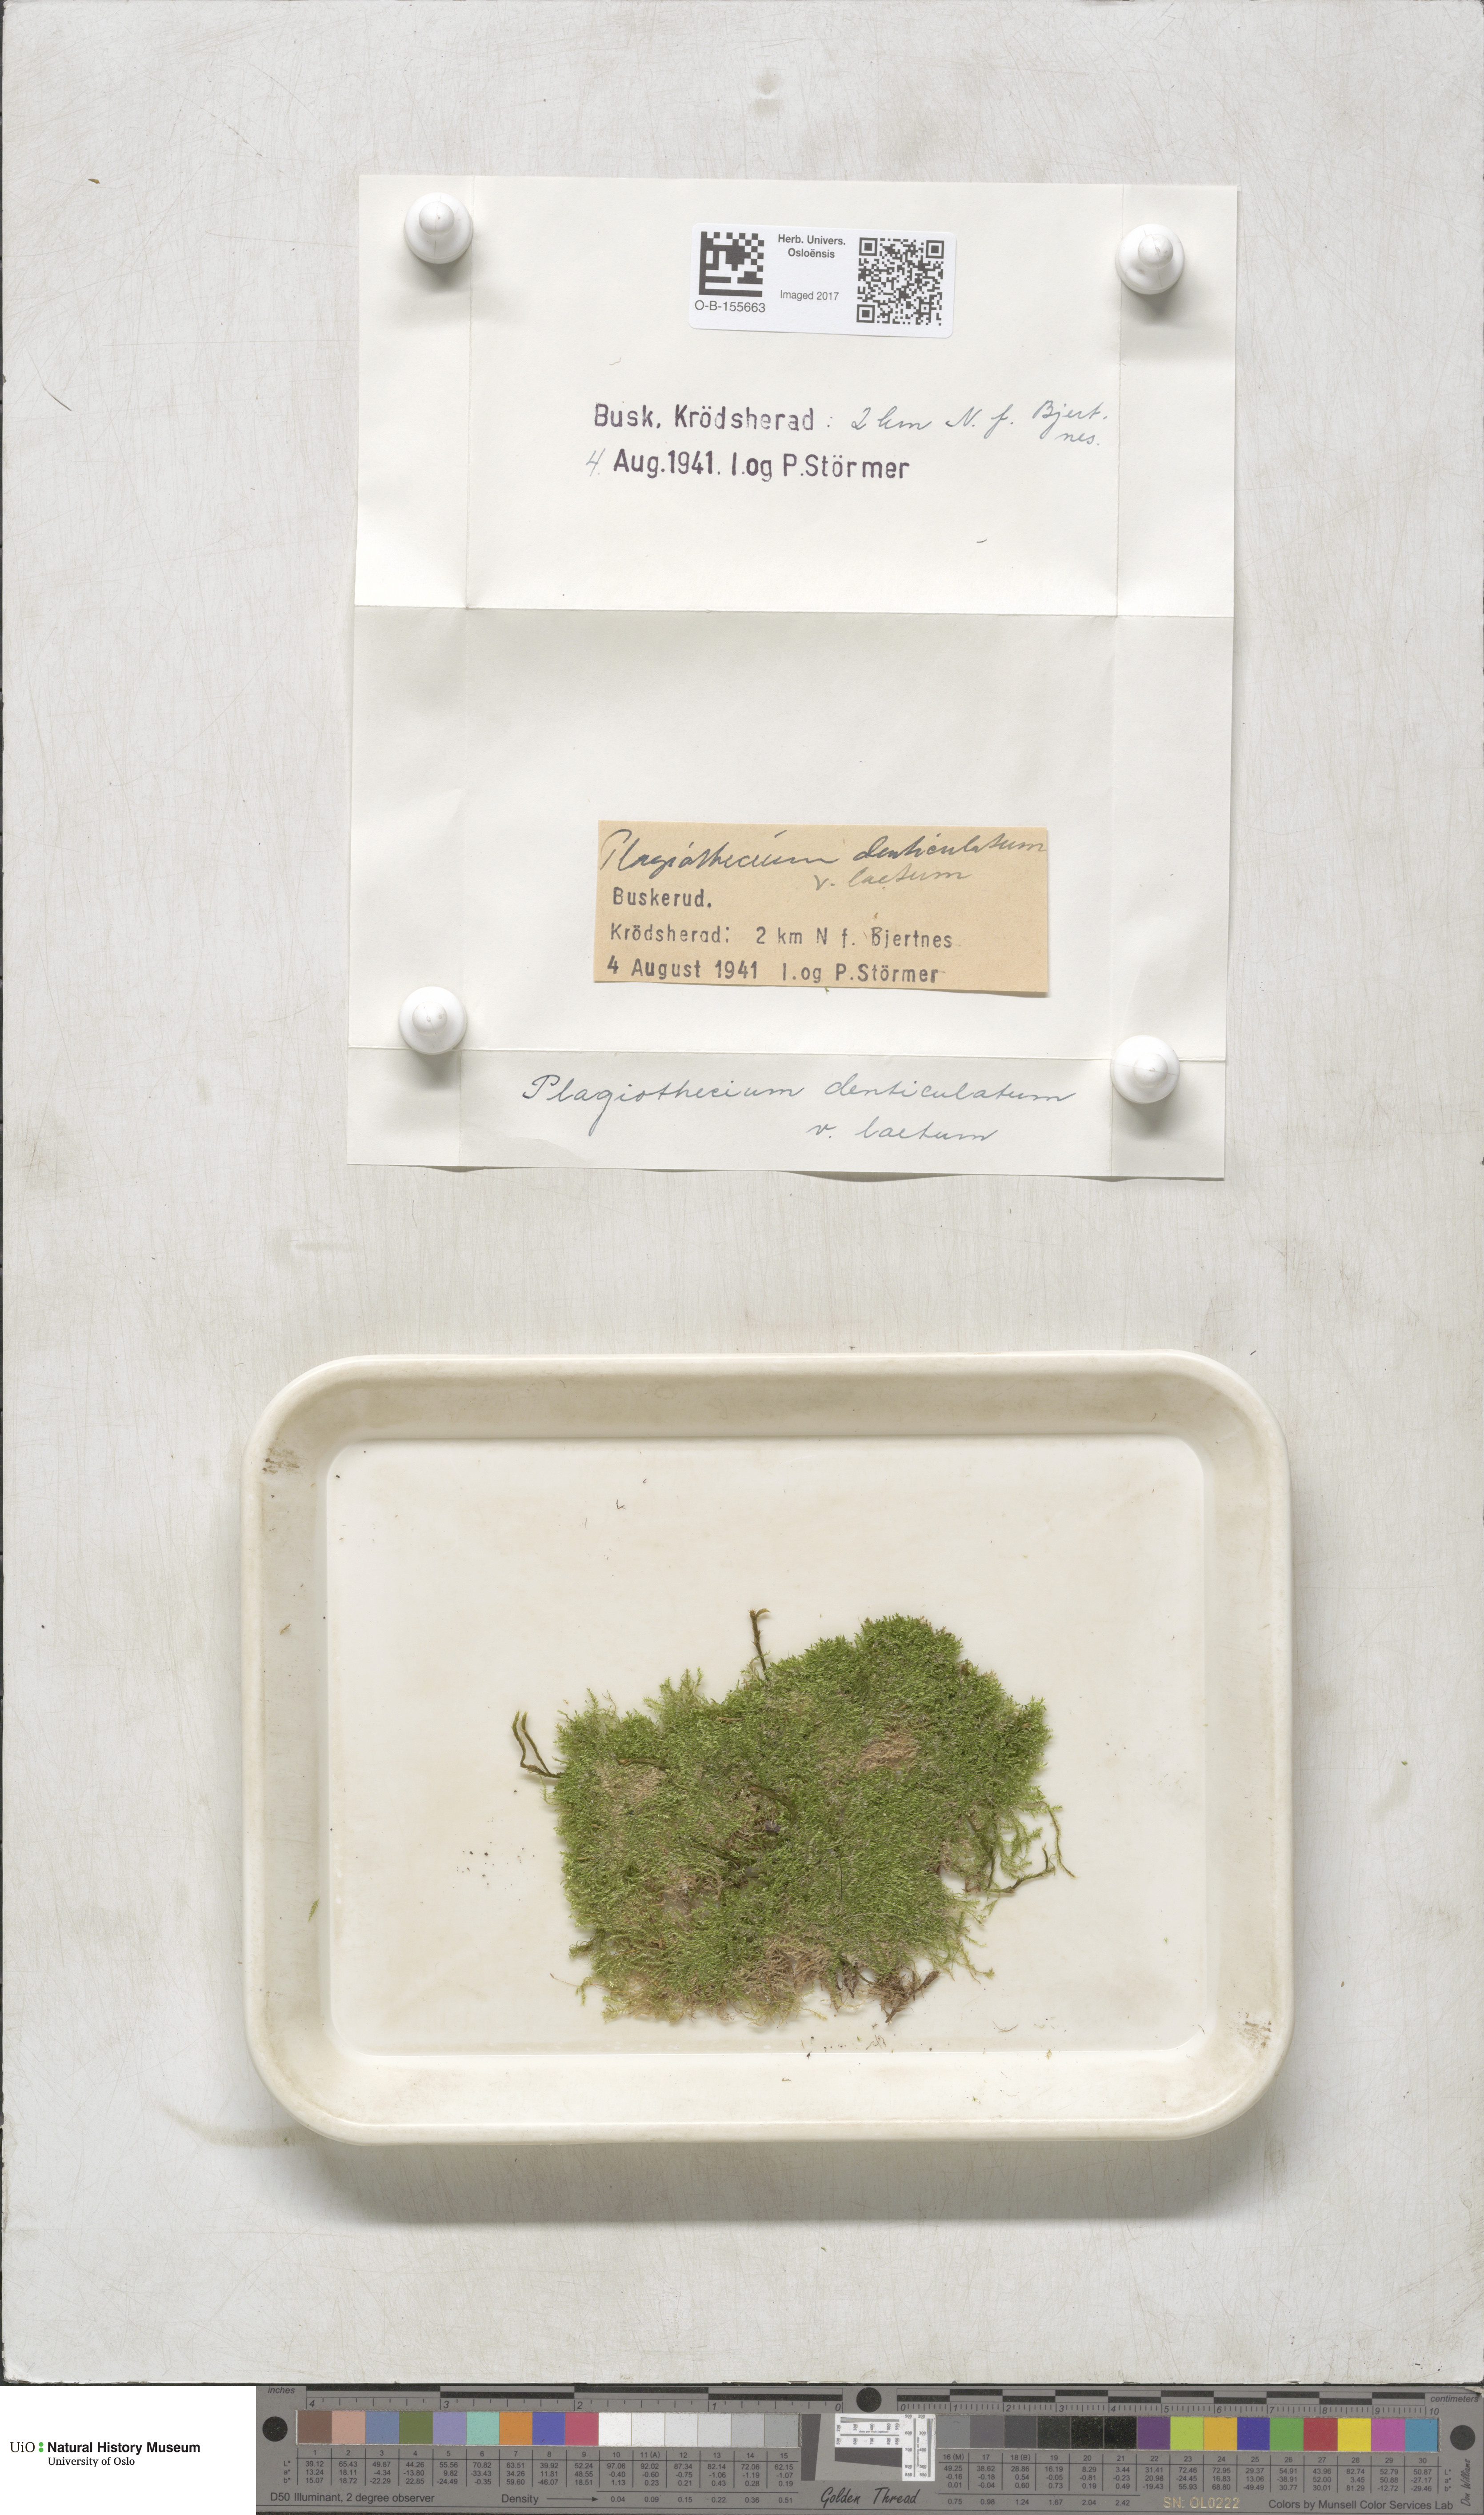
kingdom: Plantae
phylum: Bryophyta
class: Bryopsida
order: Hypnales
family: Plagiotheciaceae
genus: Plagiothecium
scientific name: Plagiothecium laetum
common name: Bright silk moss
